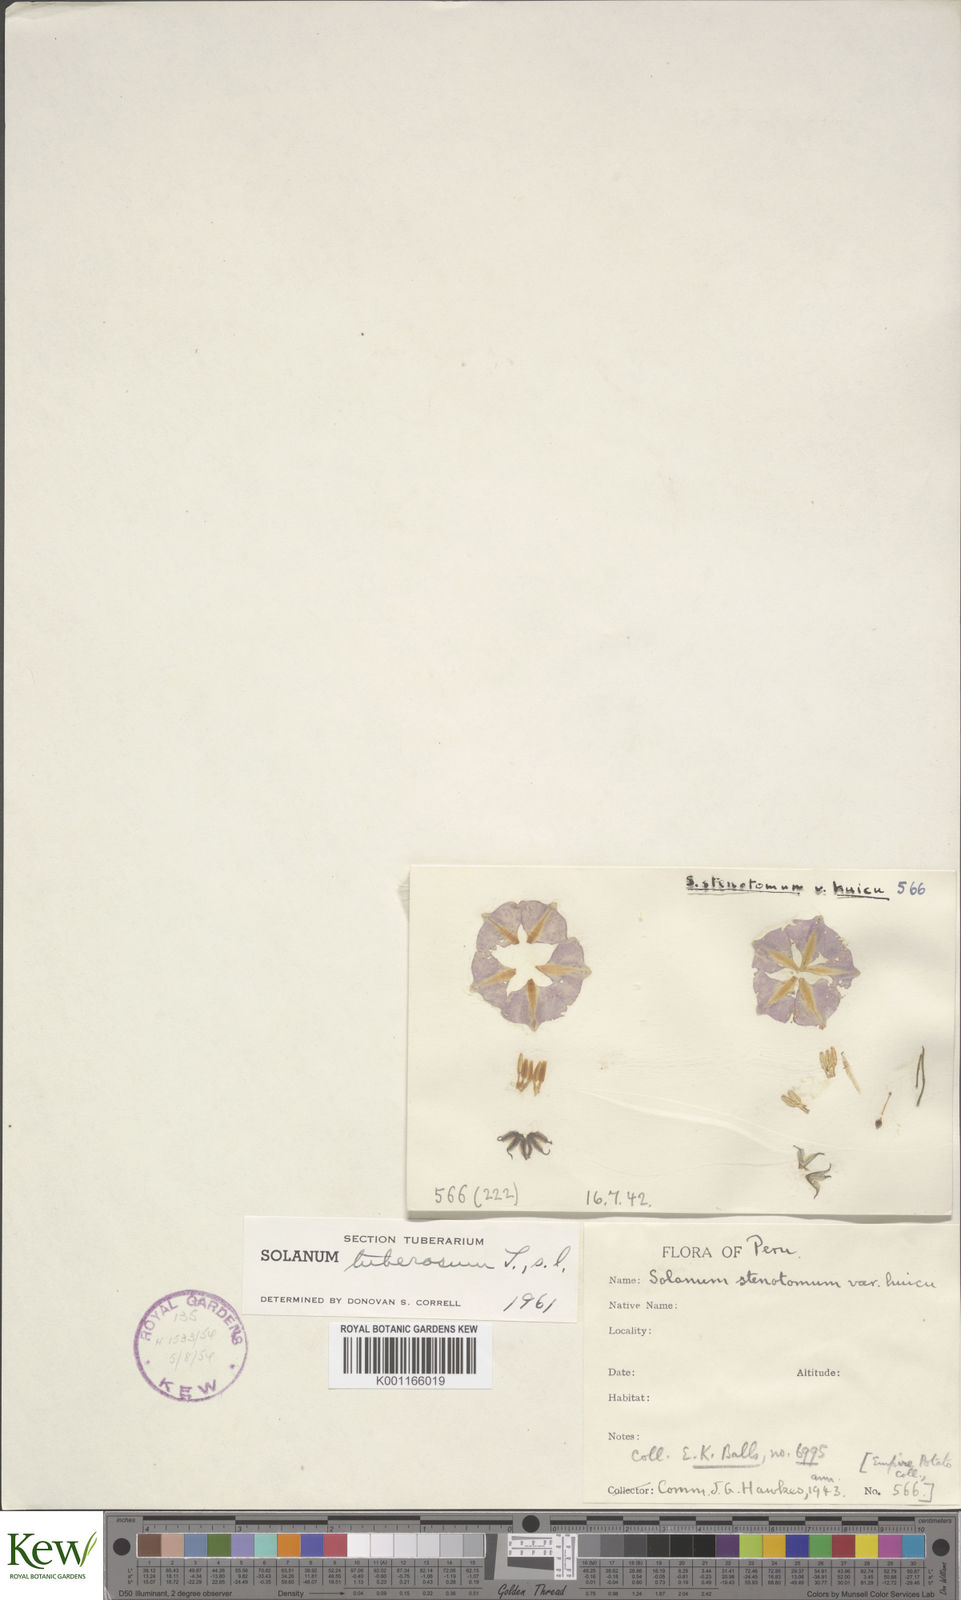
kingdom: Plantae
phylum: Tracheophyta
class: Magnoliopsida
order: Solanales
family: Solanaceae
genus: Solanum
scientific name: Solanum tuberosum
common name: Potato
